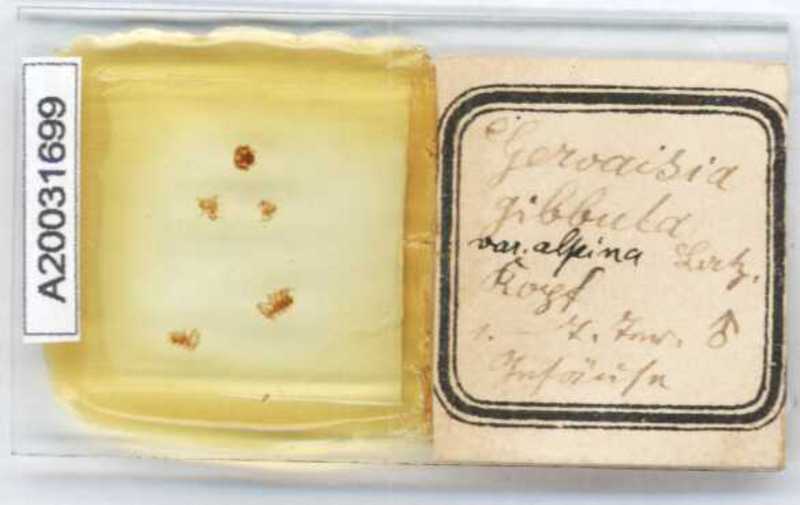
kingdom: Animalia
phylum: Arthropoda
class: Diplopoda
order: Glomerida
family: Glomeridae
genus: Trachysphaera
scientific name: Trachysphaera gibbula
